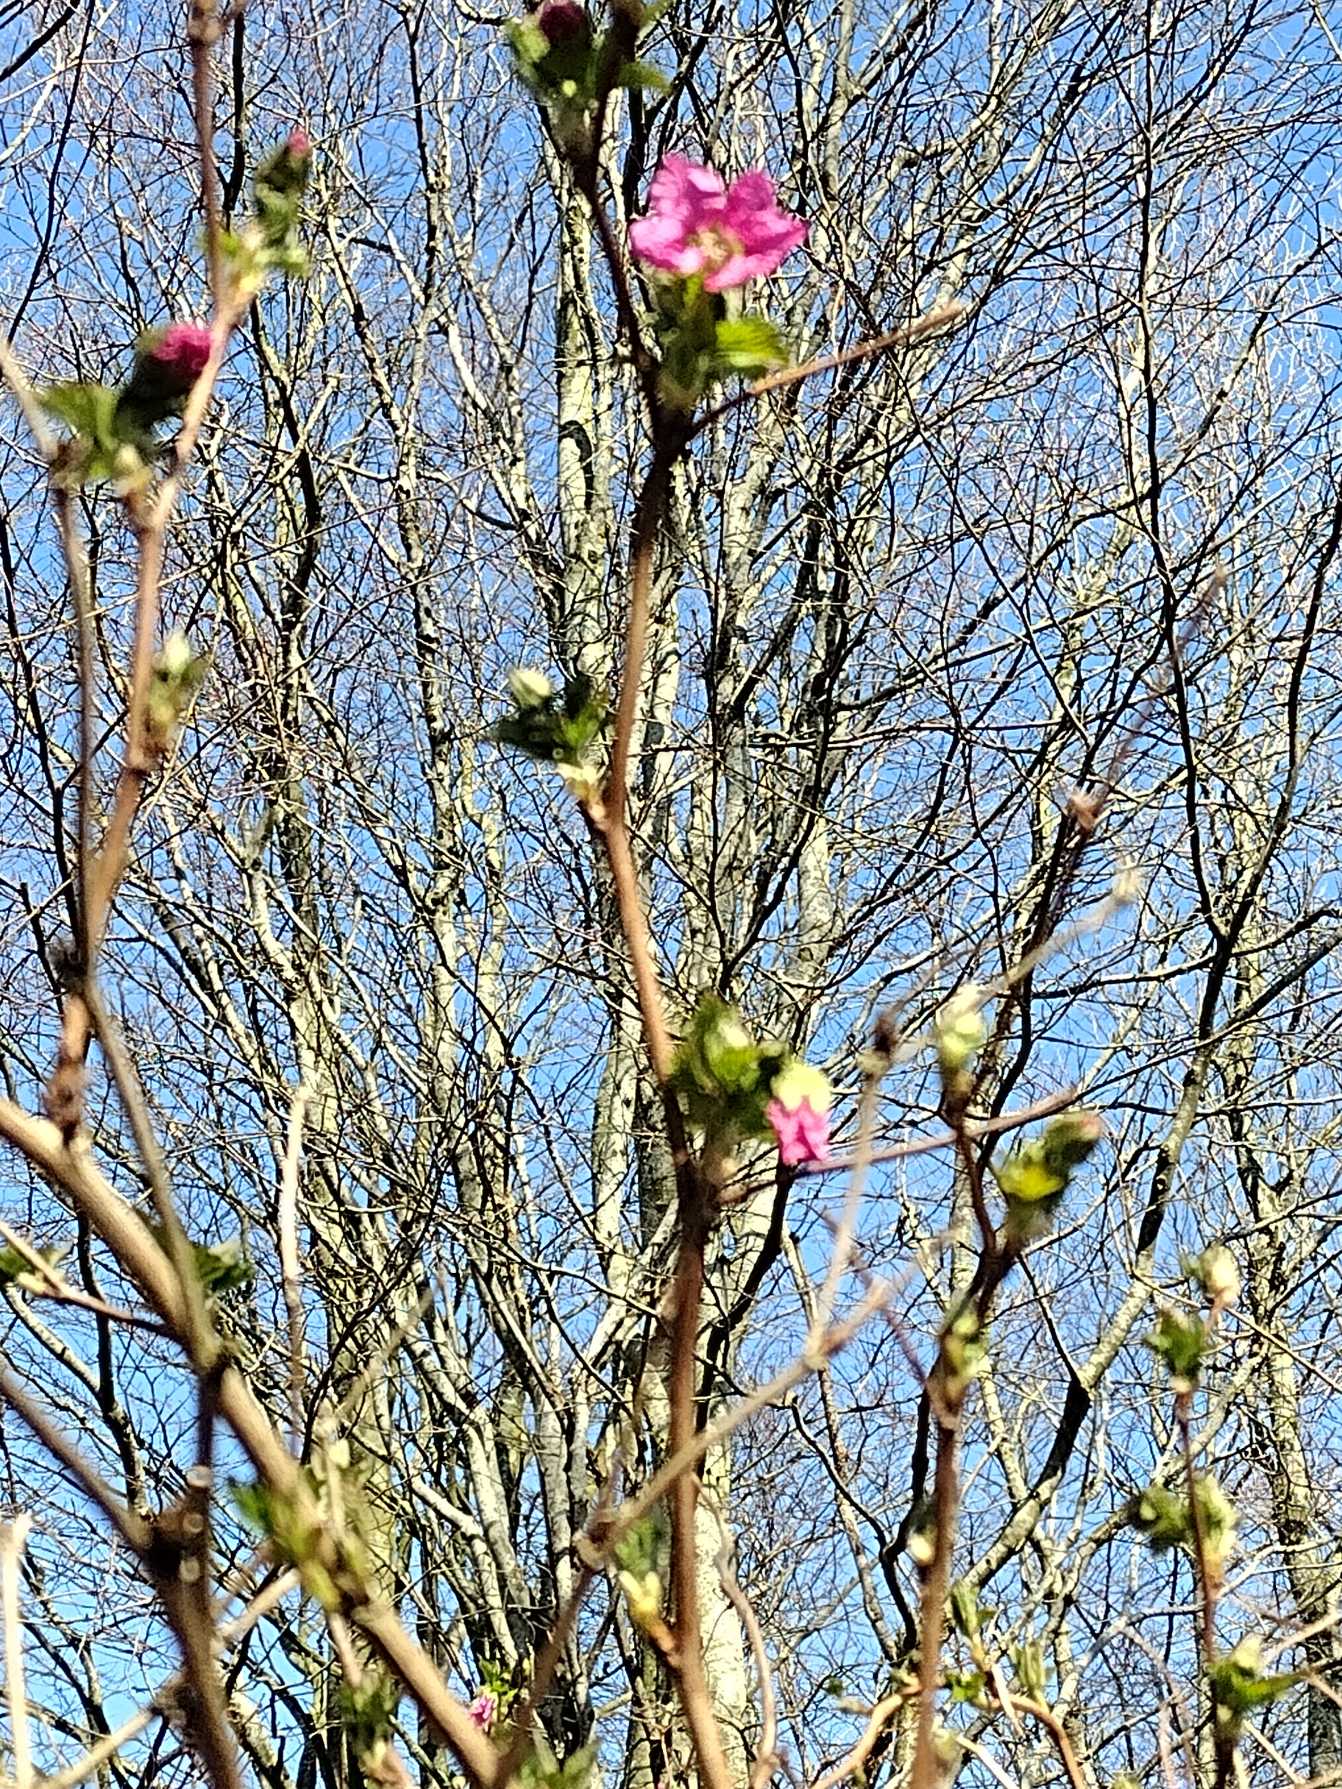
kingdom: Plantae
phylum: Tracheophyta
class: Magnoliopsida
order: Rosales
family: Rosaceae
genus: Rubus
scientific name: Rubus spectabilis
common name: Laksebær
